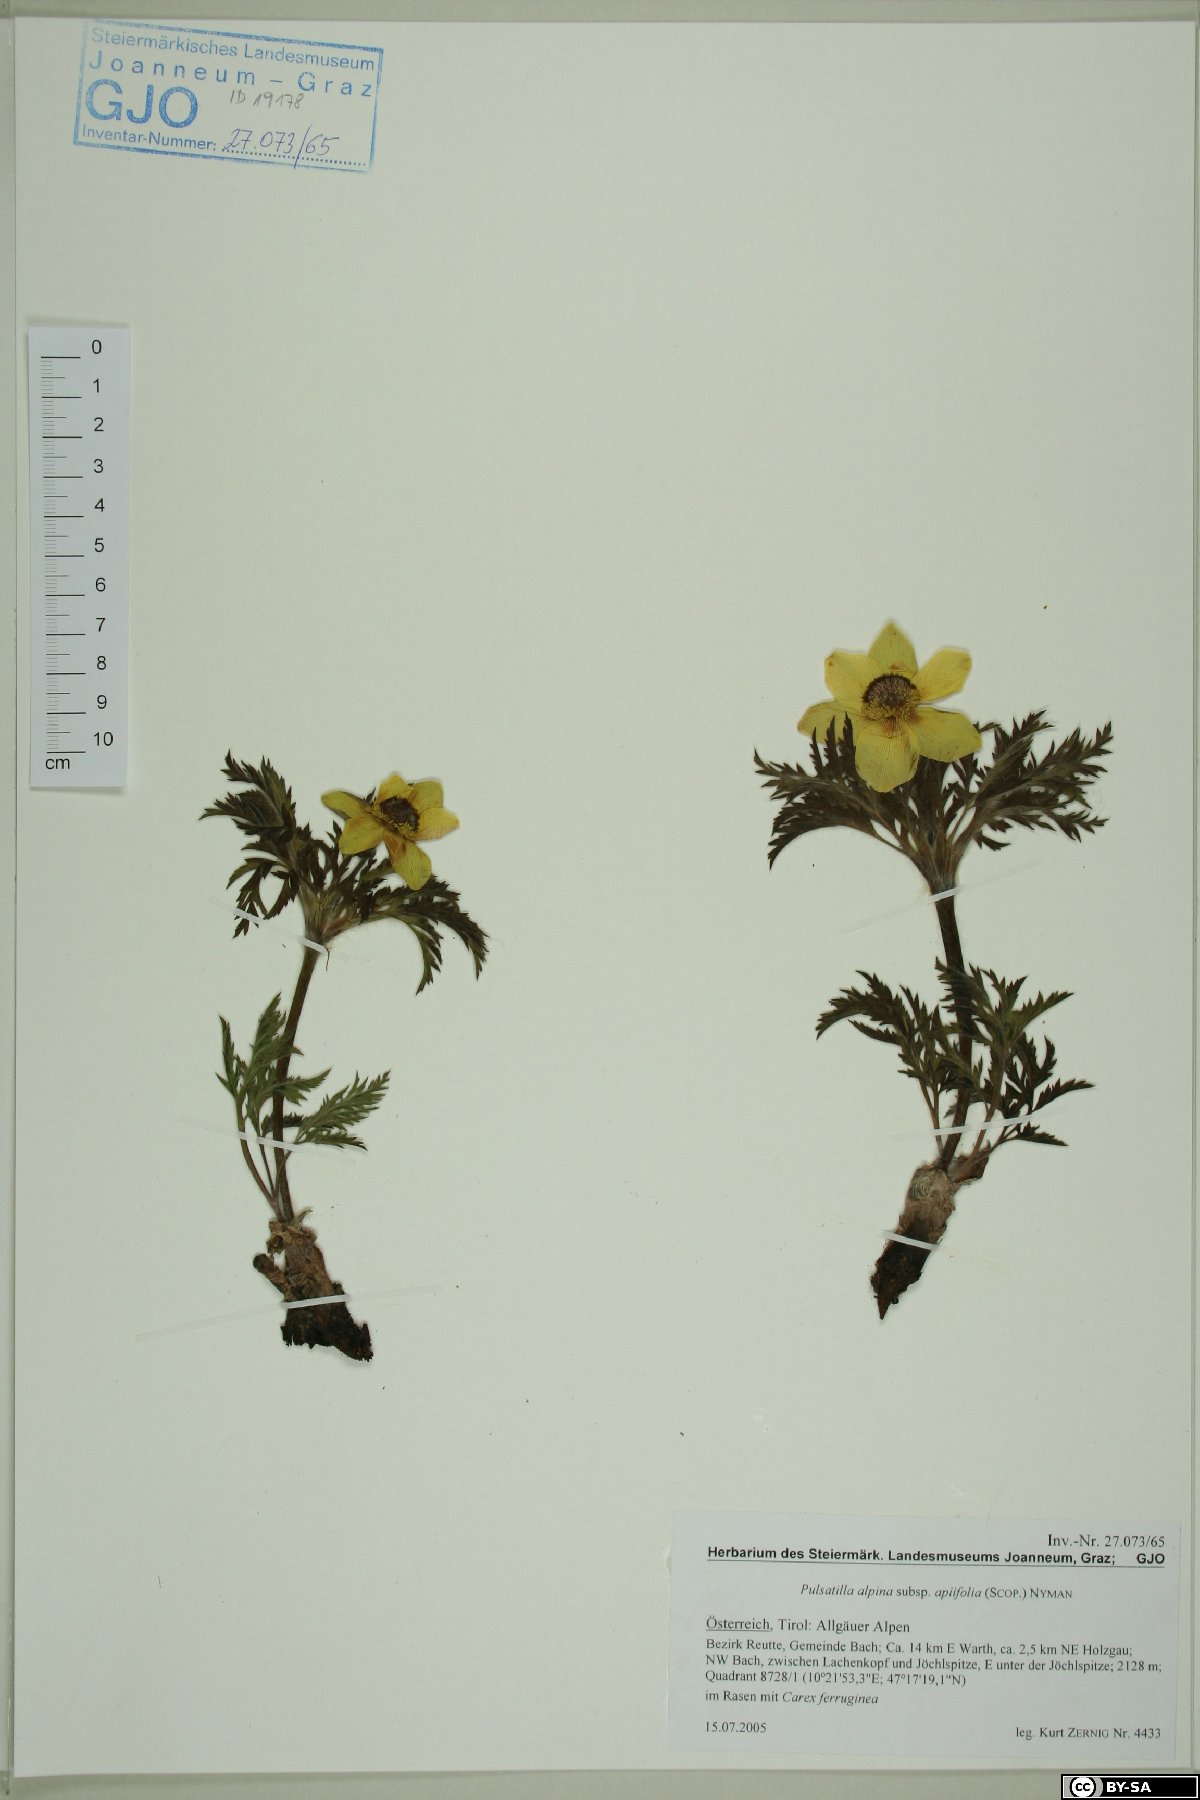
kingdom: Plantae
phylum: Tracheophyta
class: Magnoliopsida
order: Ranunculales
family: Ranunculaceae
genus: Pulsatilla
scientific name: Pulsatilla alpina
